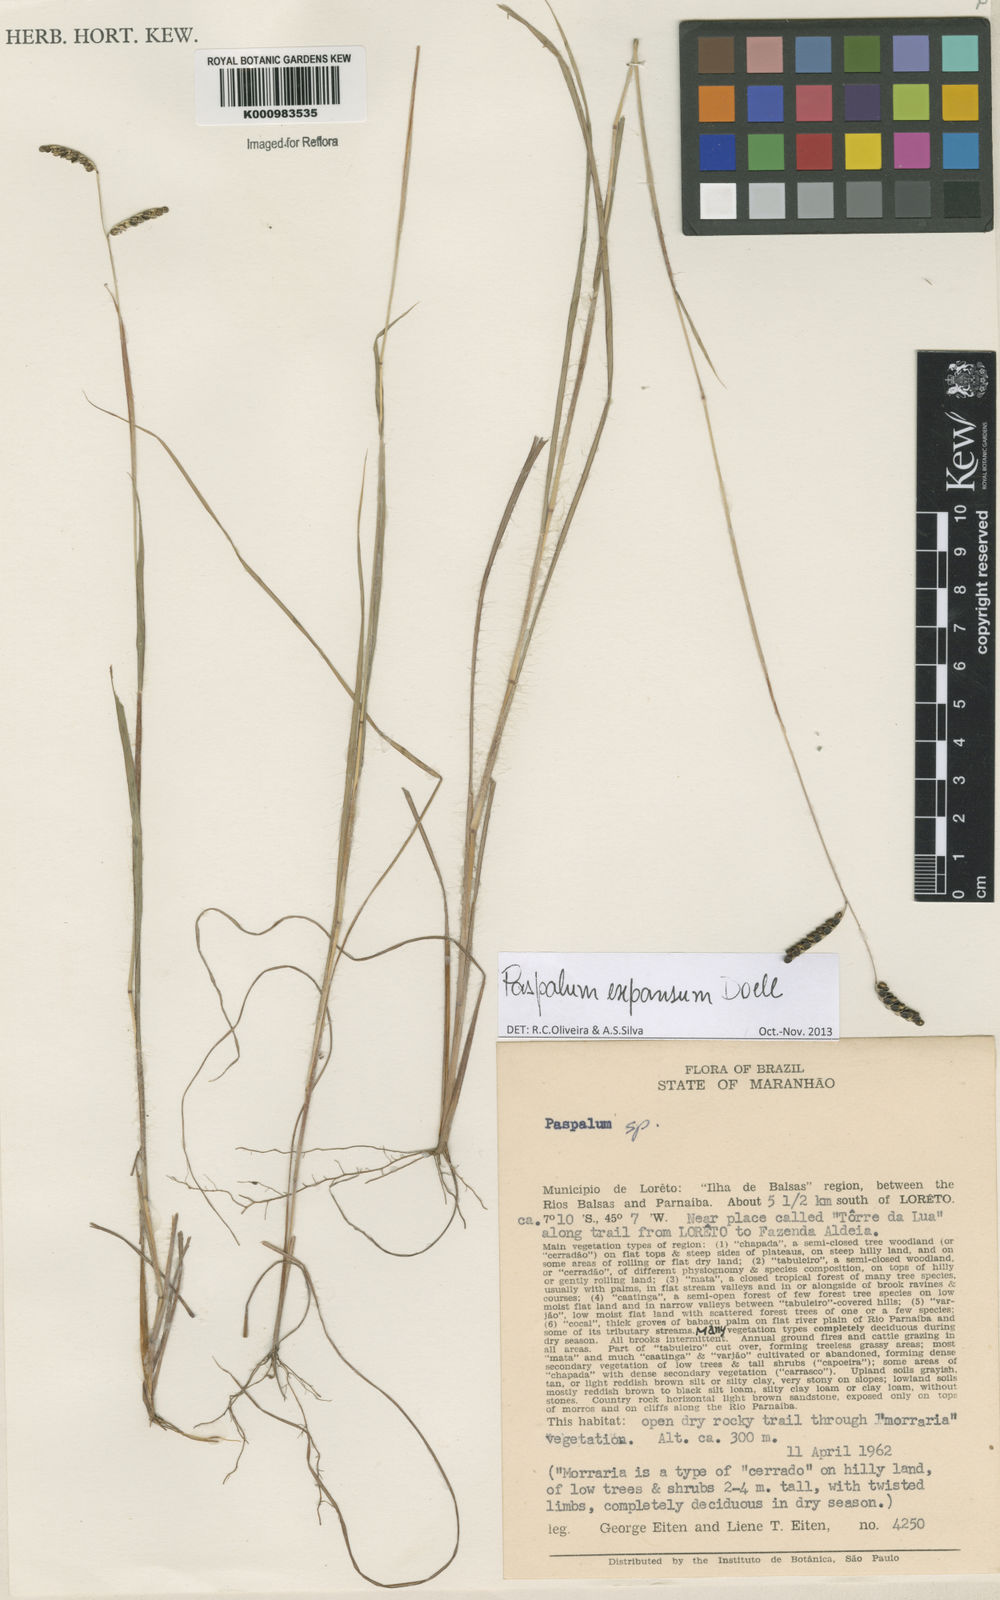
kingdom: Plantae
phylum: Tracheophyta
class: Liliopsida
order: Poales
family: Poaceae
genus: Paspalum
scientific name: Paspalum
